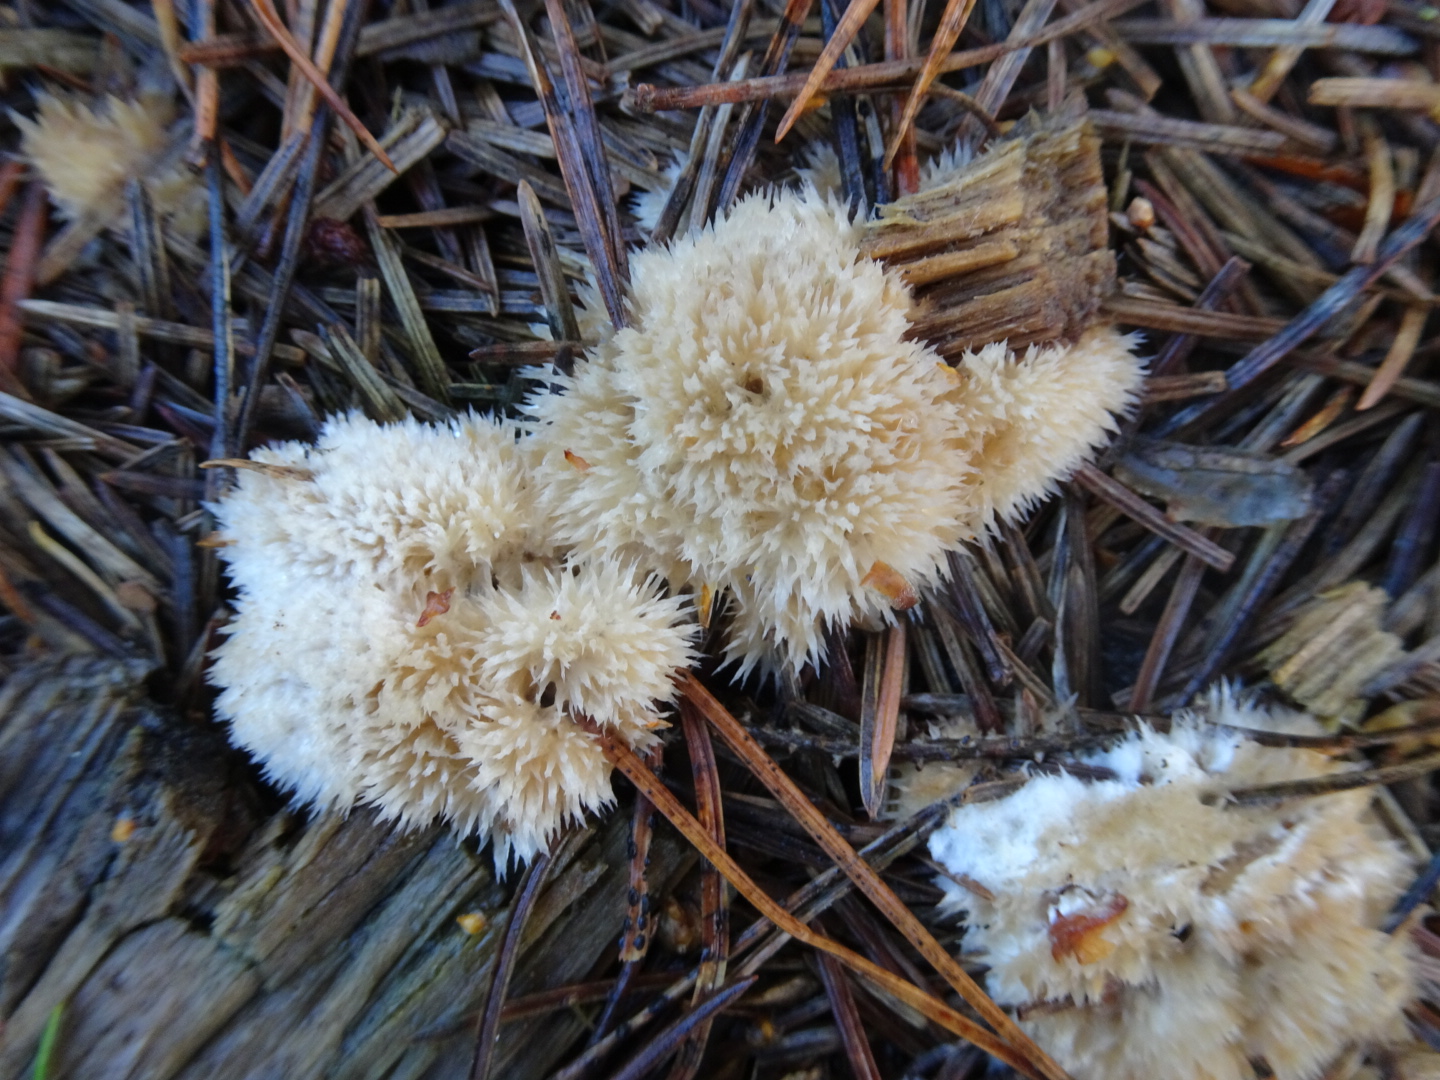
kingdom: Fungi
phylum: Basidiomycota
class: Agaricomycetes
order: Polyporales
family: Dacryobolaceae
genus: Postia
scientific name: Postia ptychogaster
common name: støvende kødporesvamp
